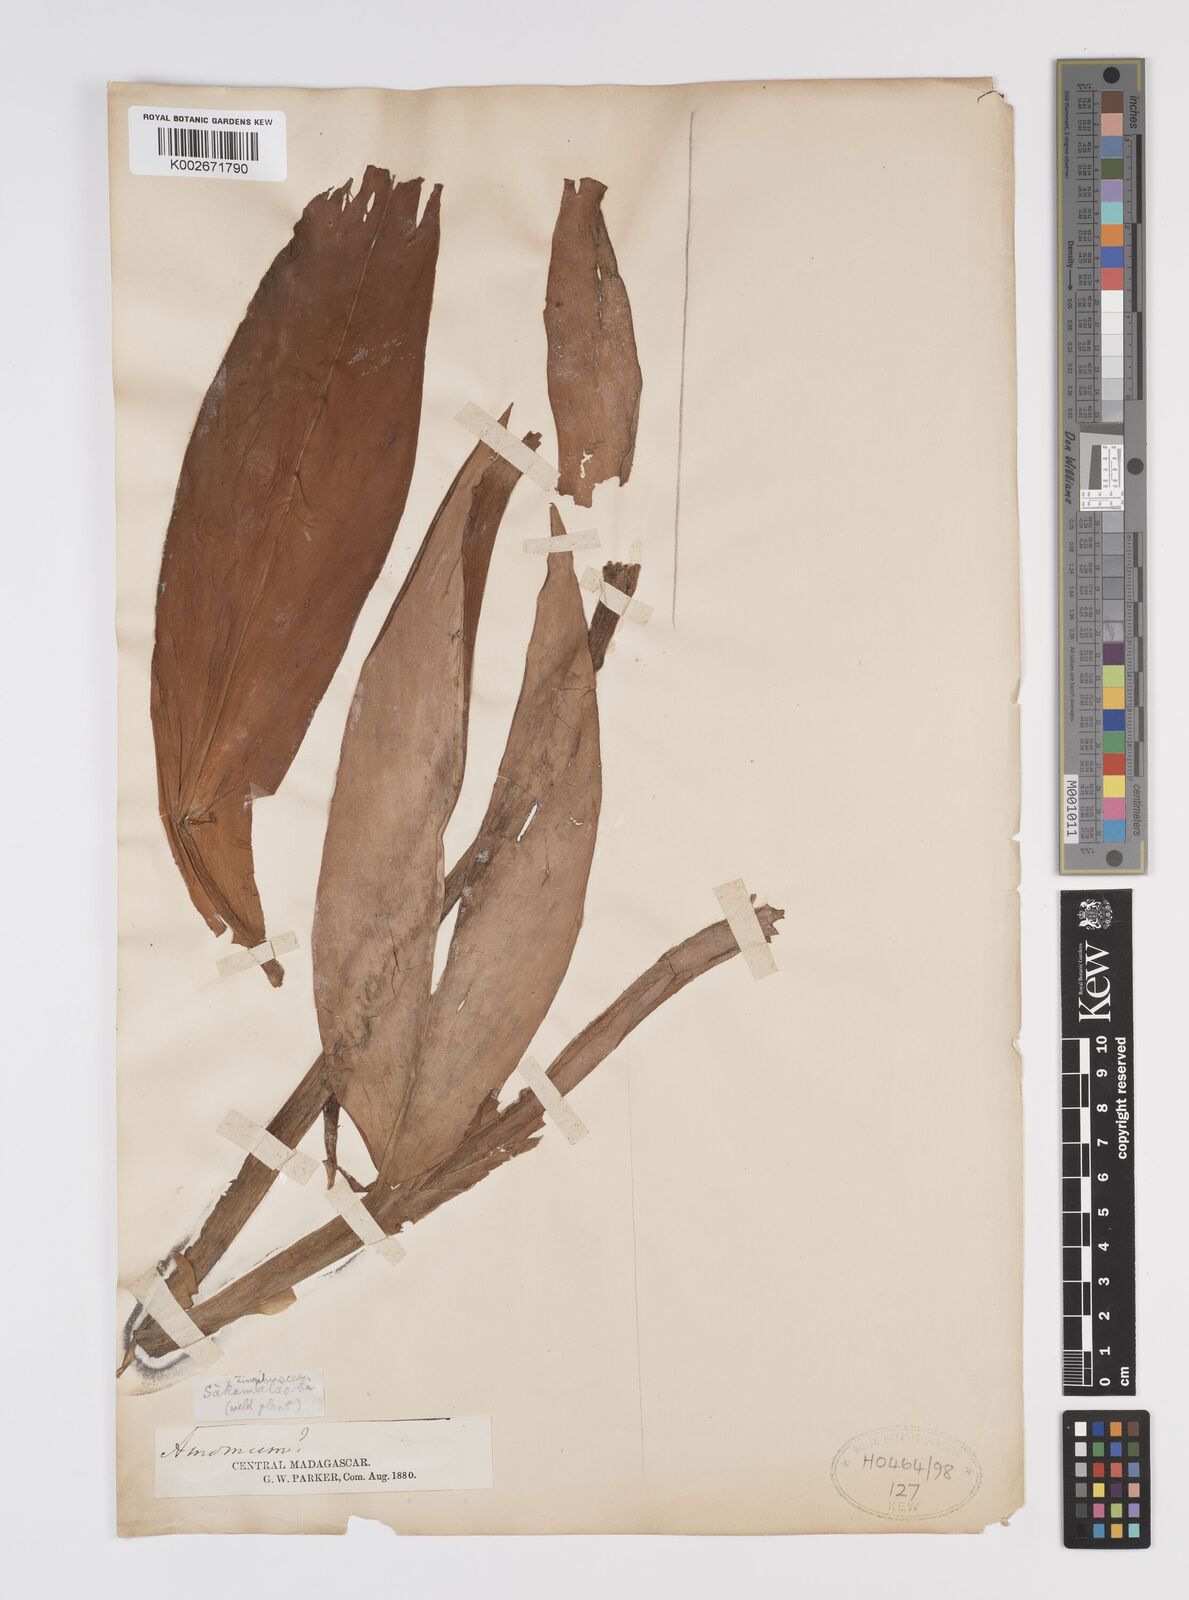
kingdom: Plantae
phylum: Tracheophyta
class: Liliopsida
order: Zingiberales
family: Zingiberaceae
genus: Aframomum
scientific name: Aframomum
